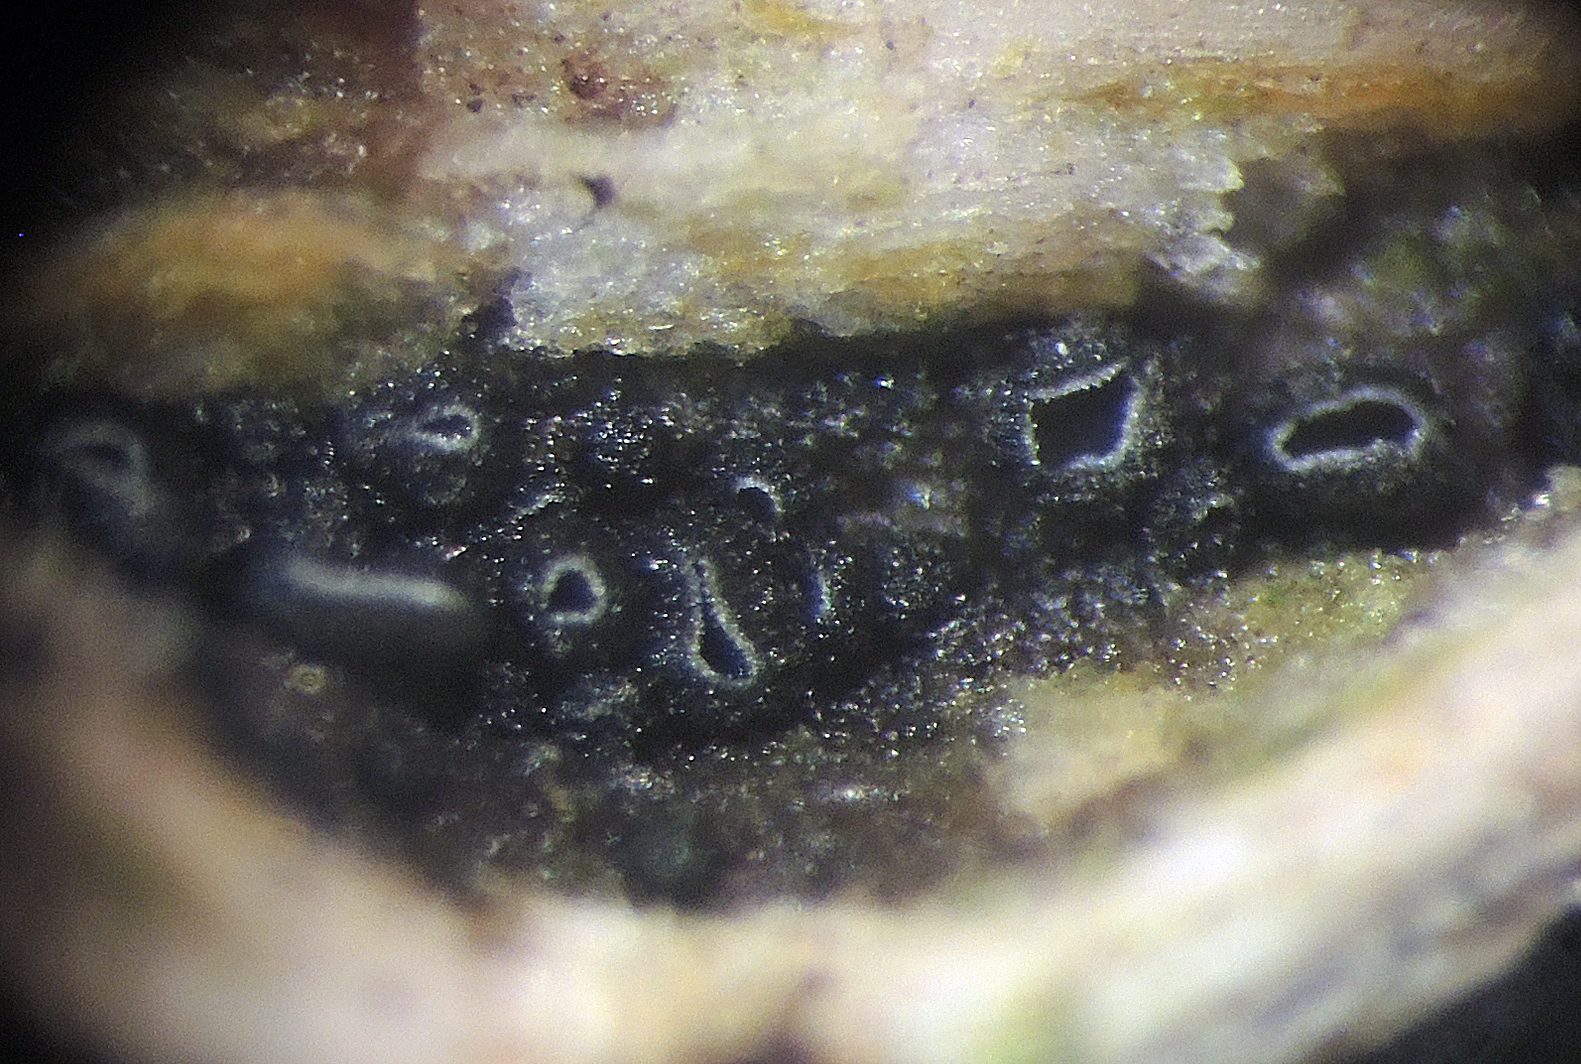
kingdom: Fungi
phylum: Ascomycota
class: Leotiomycetes
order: Helotiales
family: Dermateaceae
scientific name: Dermateaceae
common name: gråskivefamilien
